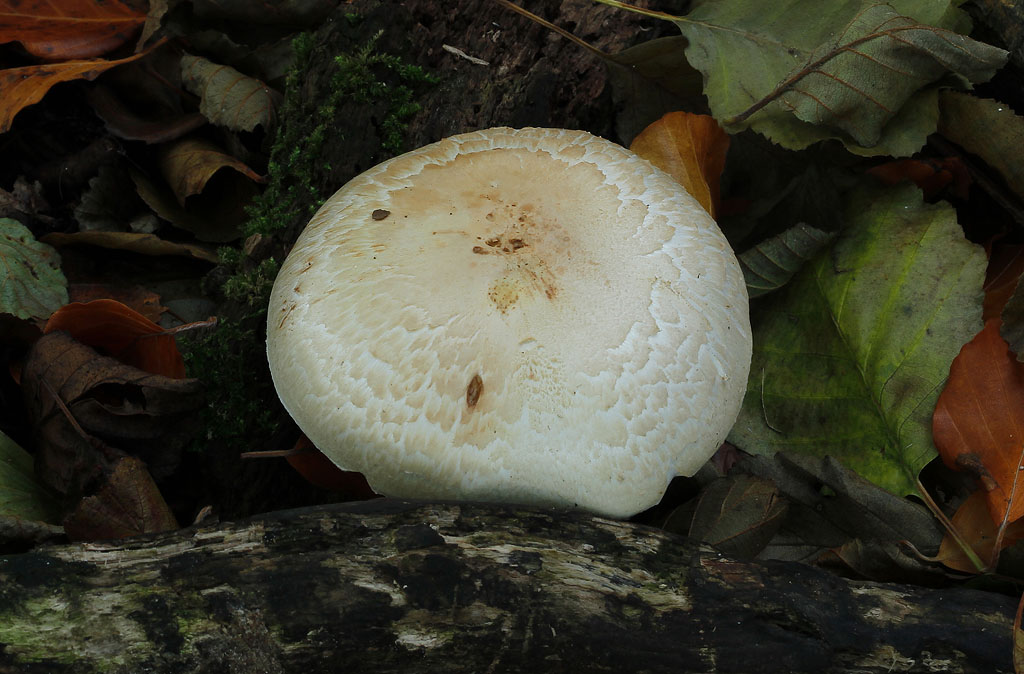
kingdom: Fungi
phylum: Basidiomycota
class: Agaricomycetes
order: Agaricales
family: Agaricaceae
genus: Agaricus
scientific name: Agaricus arvensis
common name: ager-champignon
